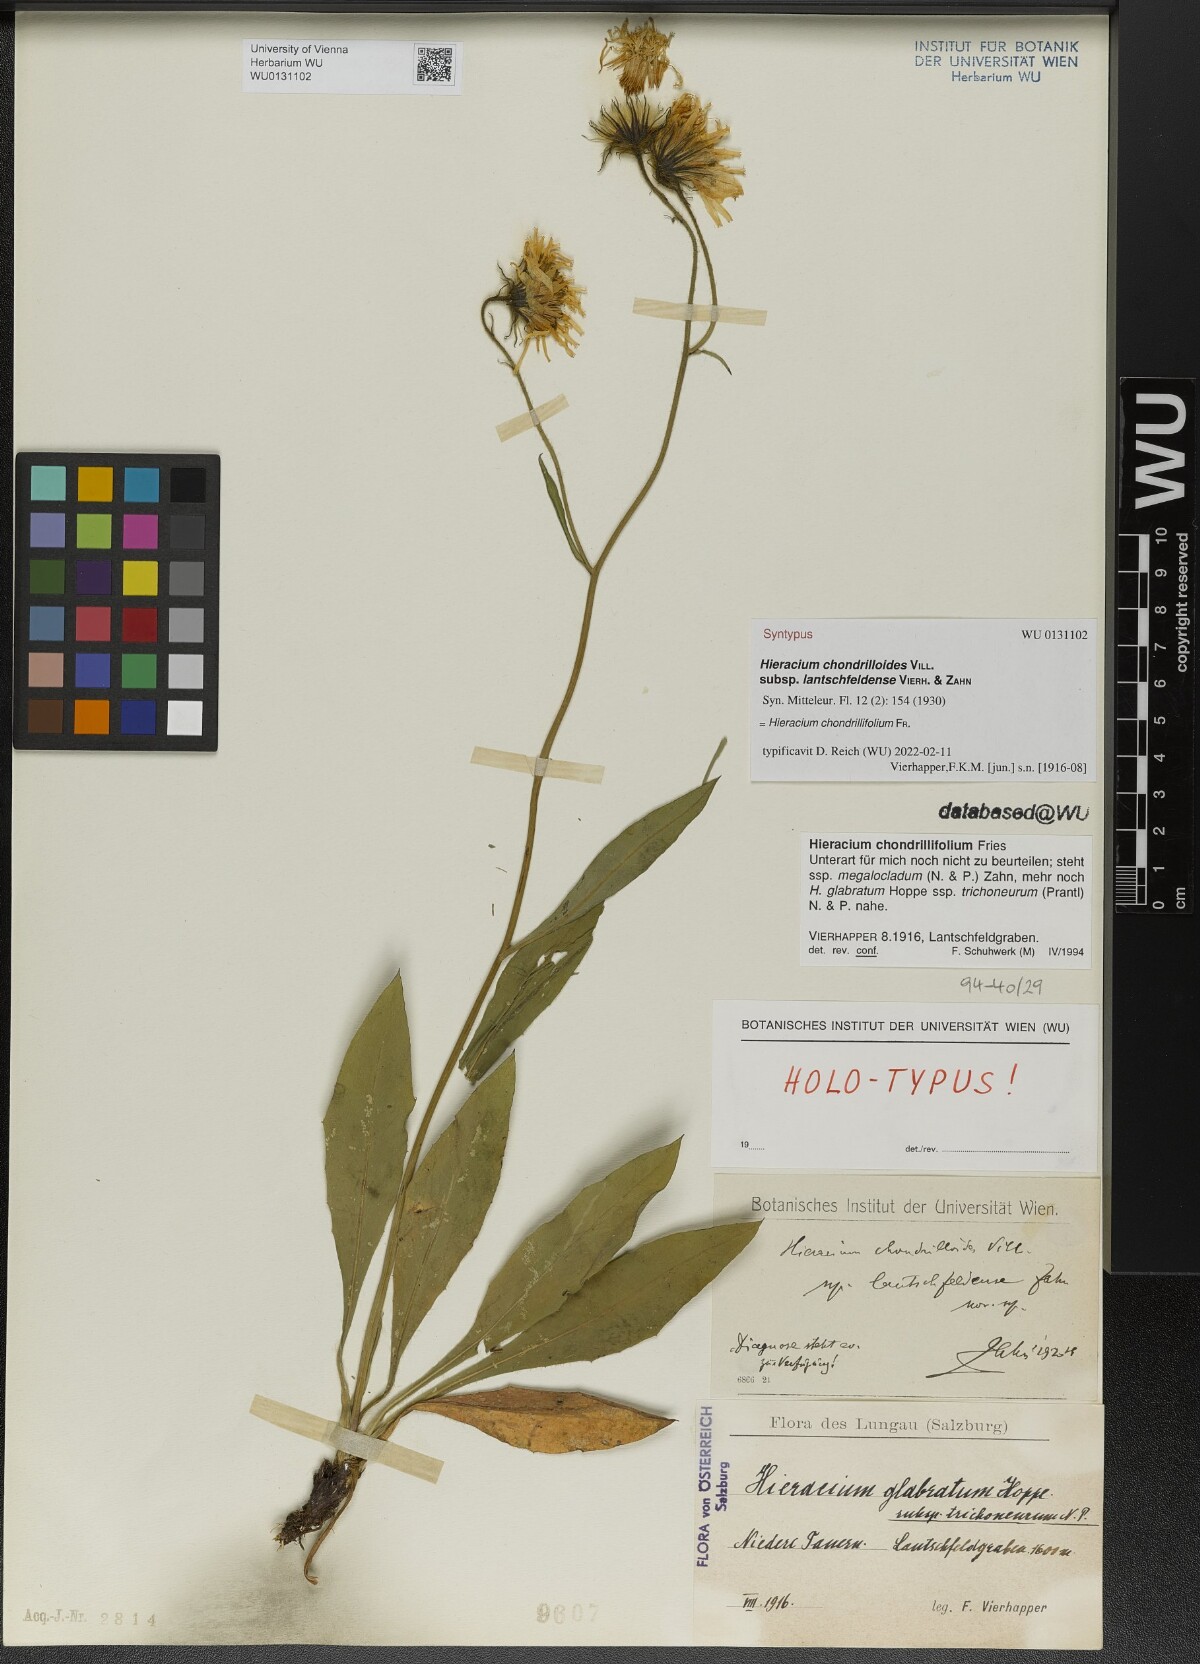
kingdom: Plantae
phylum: Tracheophyta
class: Magnoliopsida
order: Asterales
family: Asteraceae
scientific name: Asteraceae
